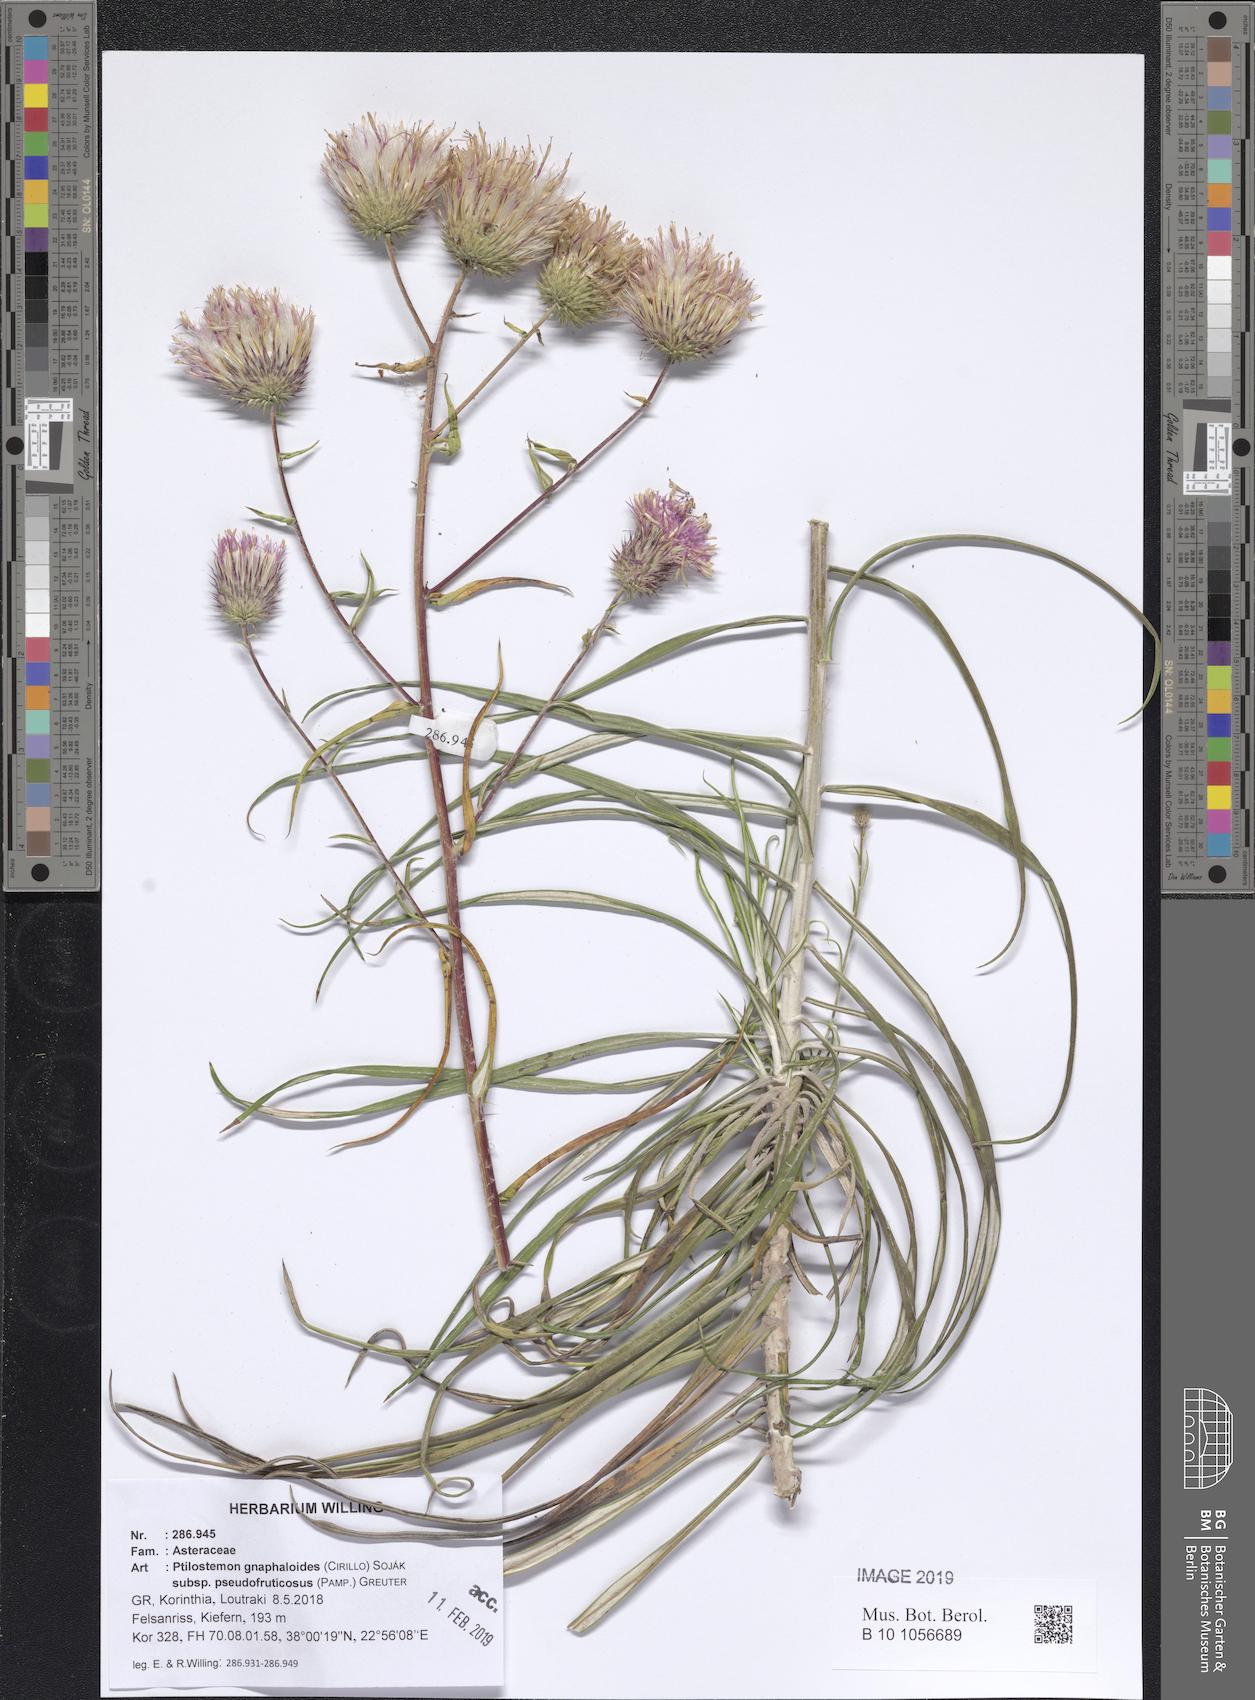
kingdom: Plantae
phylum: Tracheophyta
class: Magnoliopsida
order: Asterales
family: Asteraceae
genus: Ptilostemon
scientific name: Ptilostemon gnaphaloides
